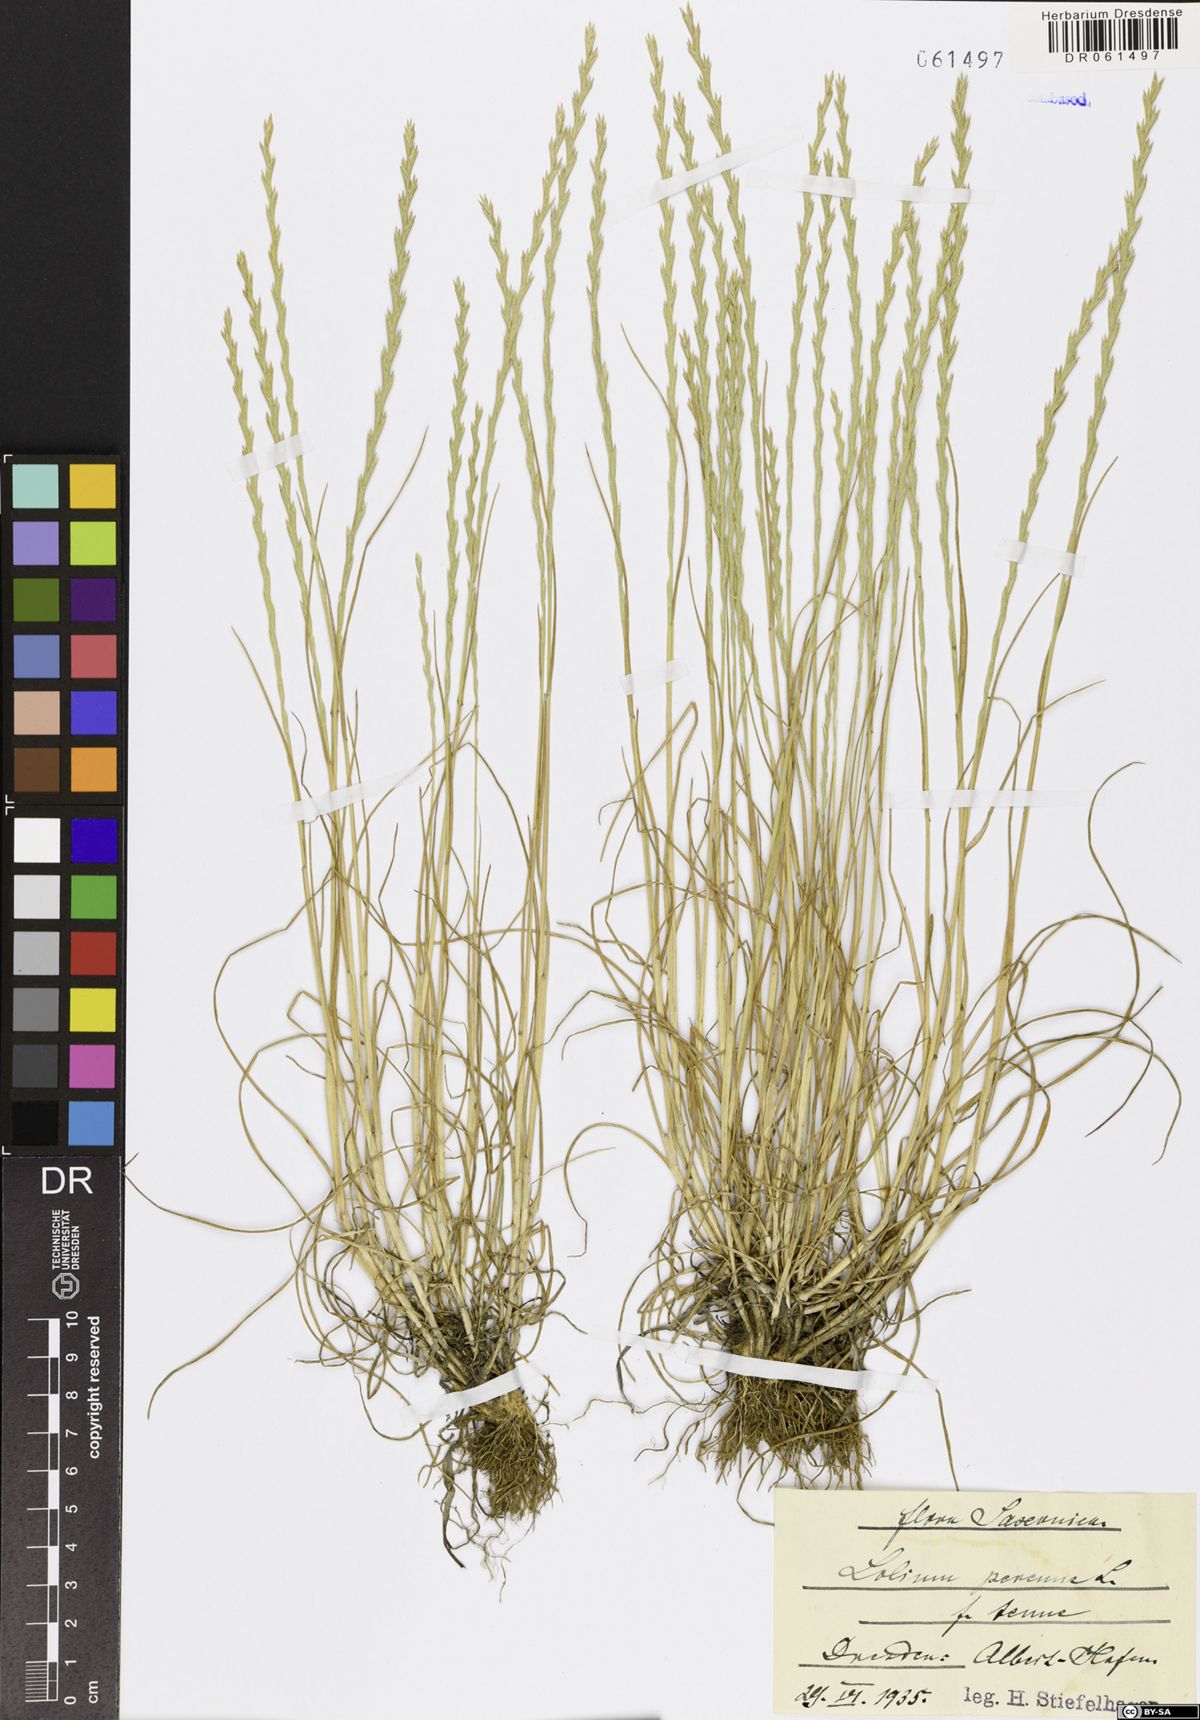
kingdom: Plantae
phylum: Tracheophyta
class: Liliopsida
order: Poales
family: Poaceae
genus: Lolium
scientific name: Lolium perenne
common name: Perennial ryegrass
